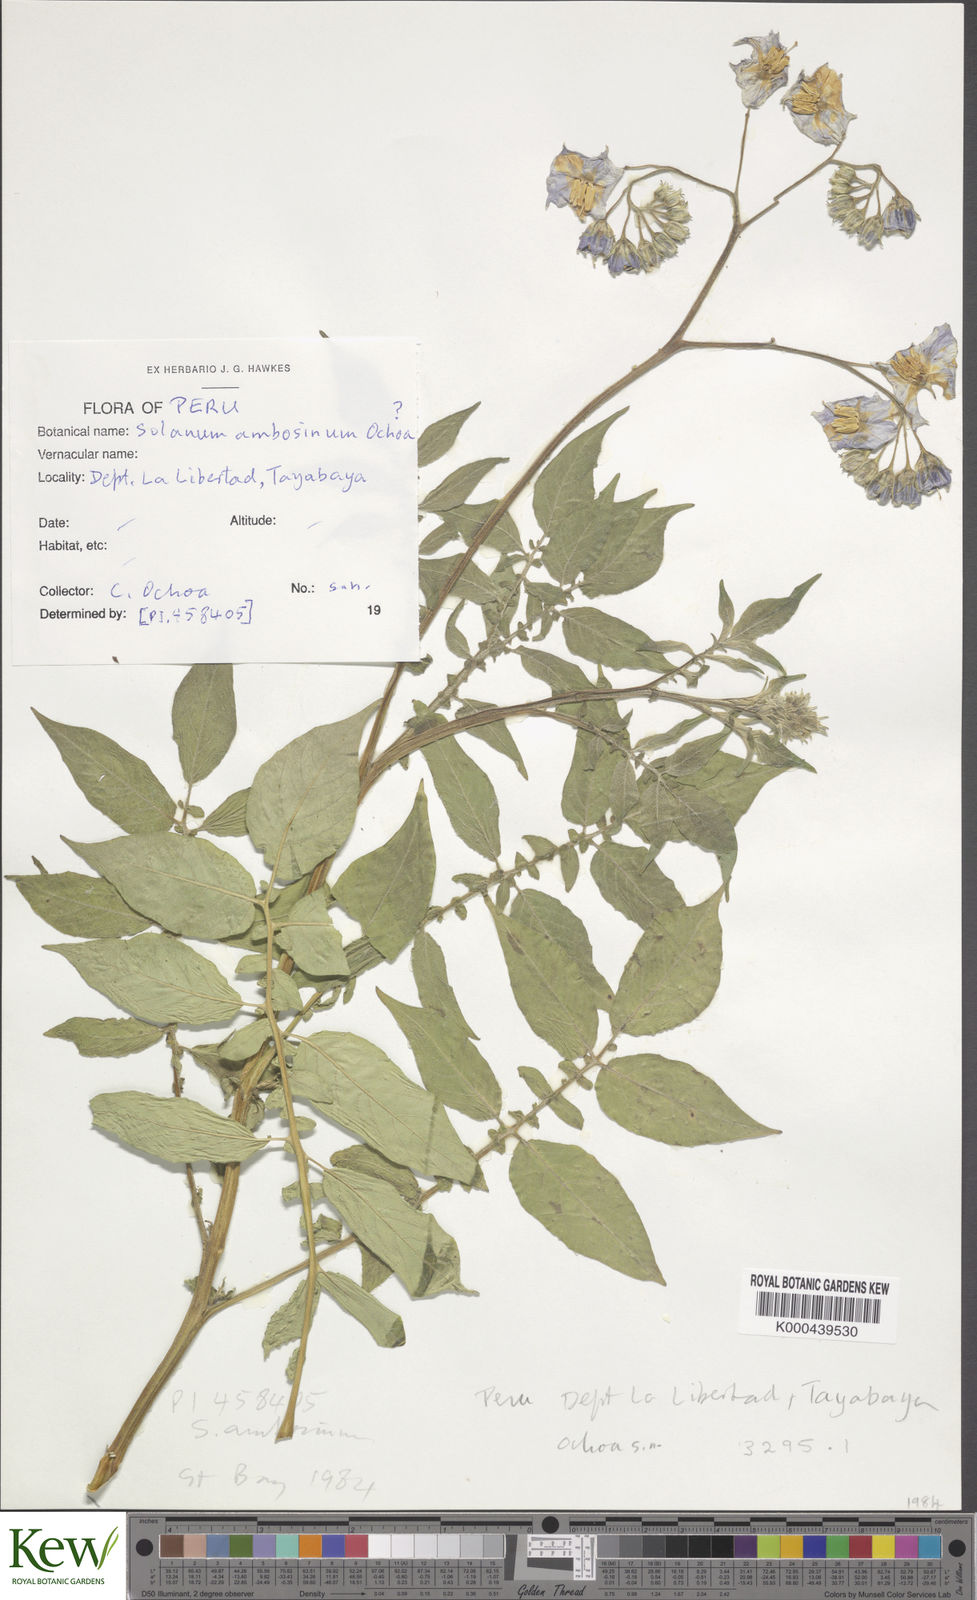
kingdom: Plantae
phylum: Tracheophyta
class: Magnoliopsida
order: Solanales
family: Solanaceae
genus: Solanum
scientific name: Solanum candolleanum
